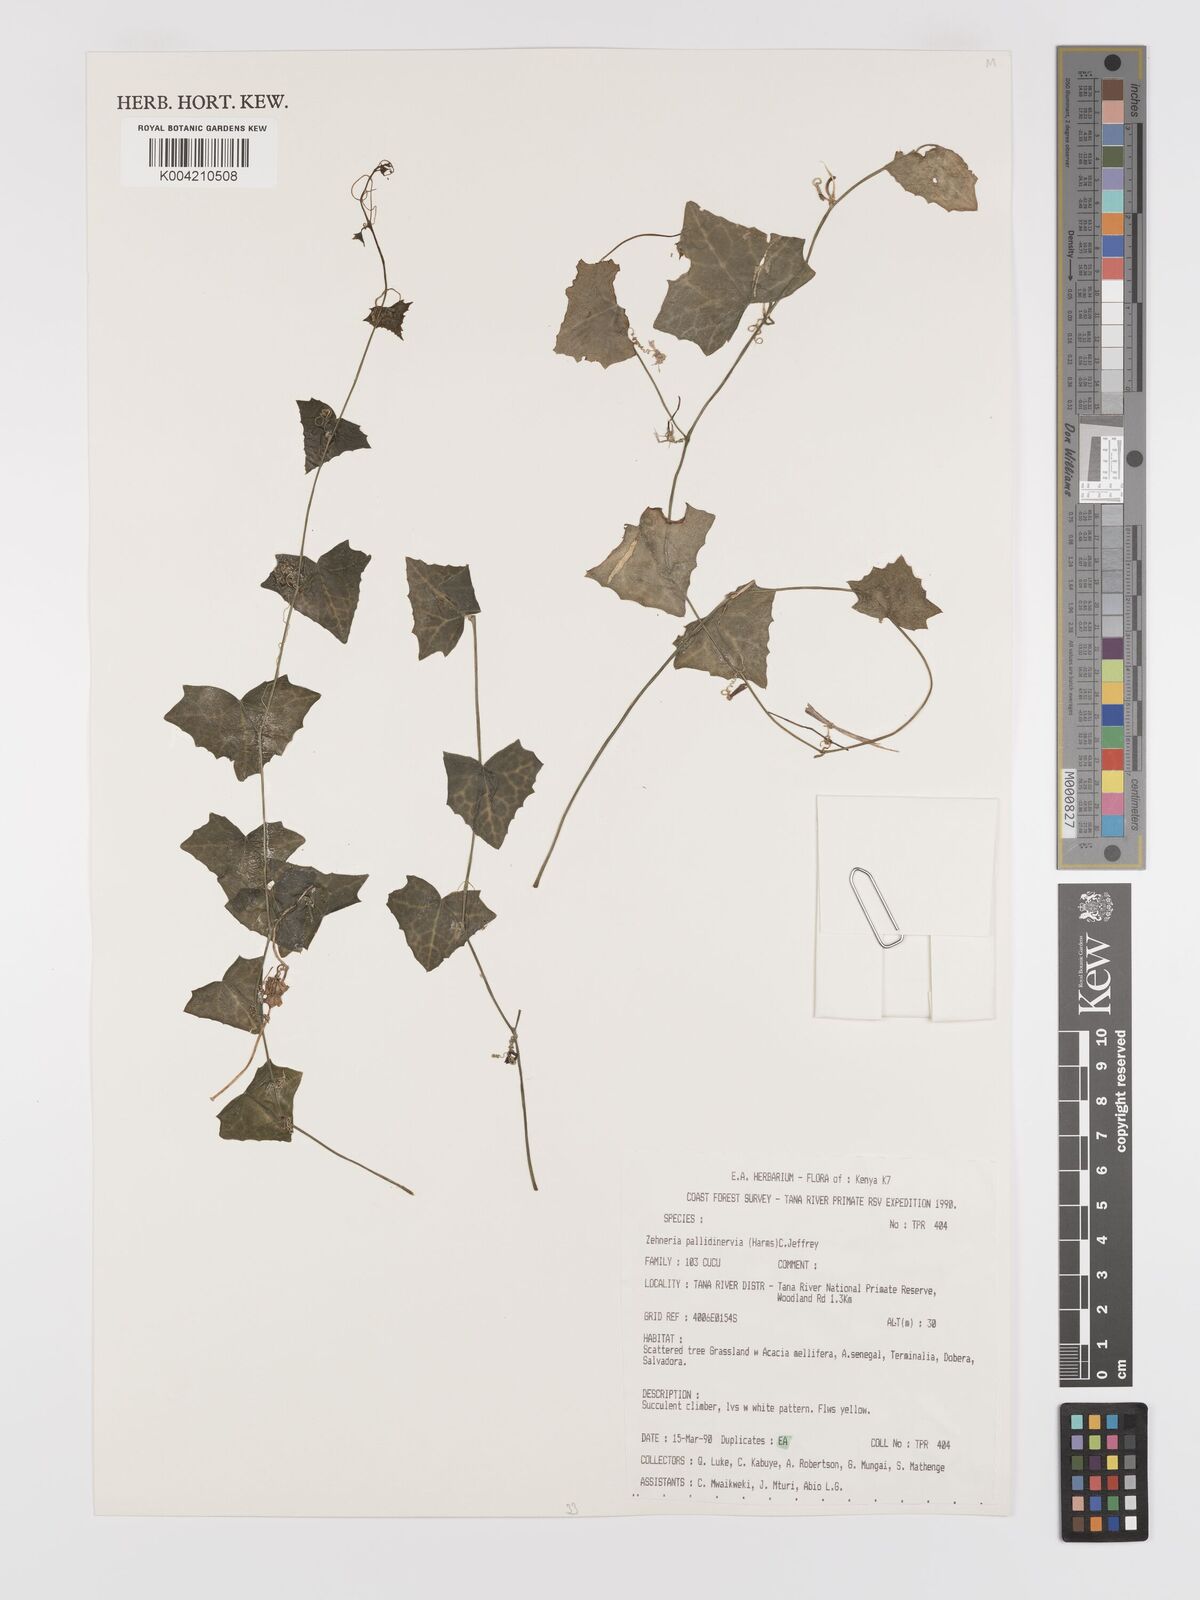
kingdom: Plantae
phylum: Tracheophyta
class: Magnoliopsida
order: Cucurbitales
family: Cucurbitaceae
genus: Zehneria
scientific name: Zehneria pallidinervia
